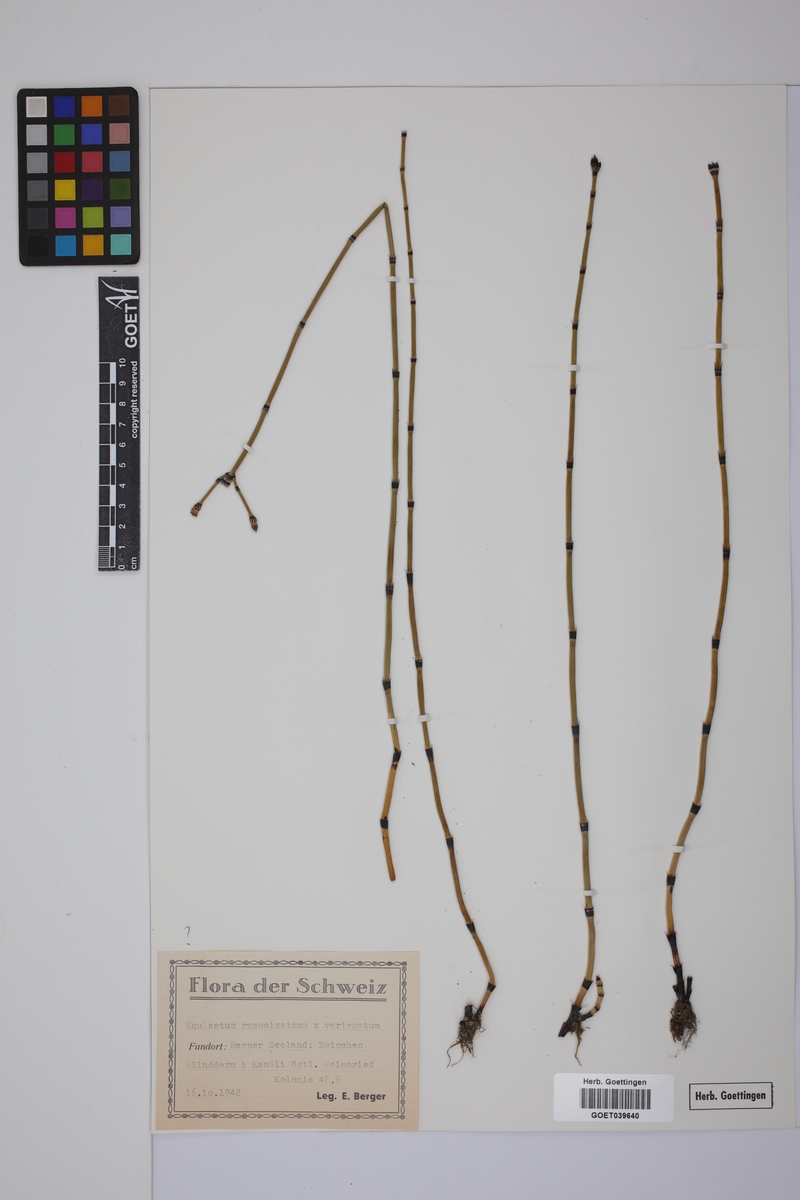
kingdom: Plantae
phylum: Tracheophyta
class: Polypodiopsida
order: Equisetales
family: Equisetaceae
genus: Equisetum
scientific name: Equisetum giganteum
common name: Giant horsetail
